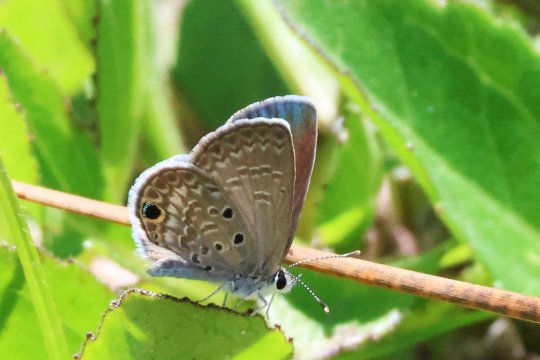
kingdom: Animalia
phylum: Arthropoda
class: Insecta
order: Lepidoptera
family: Lycaenidae
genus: Hemiargus
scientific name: Hemiargus ceraunus
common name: Ceraunus Blue
